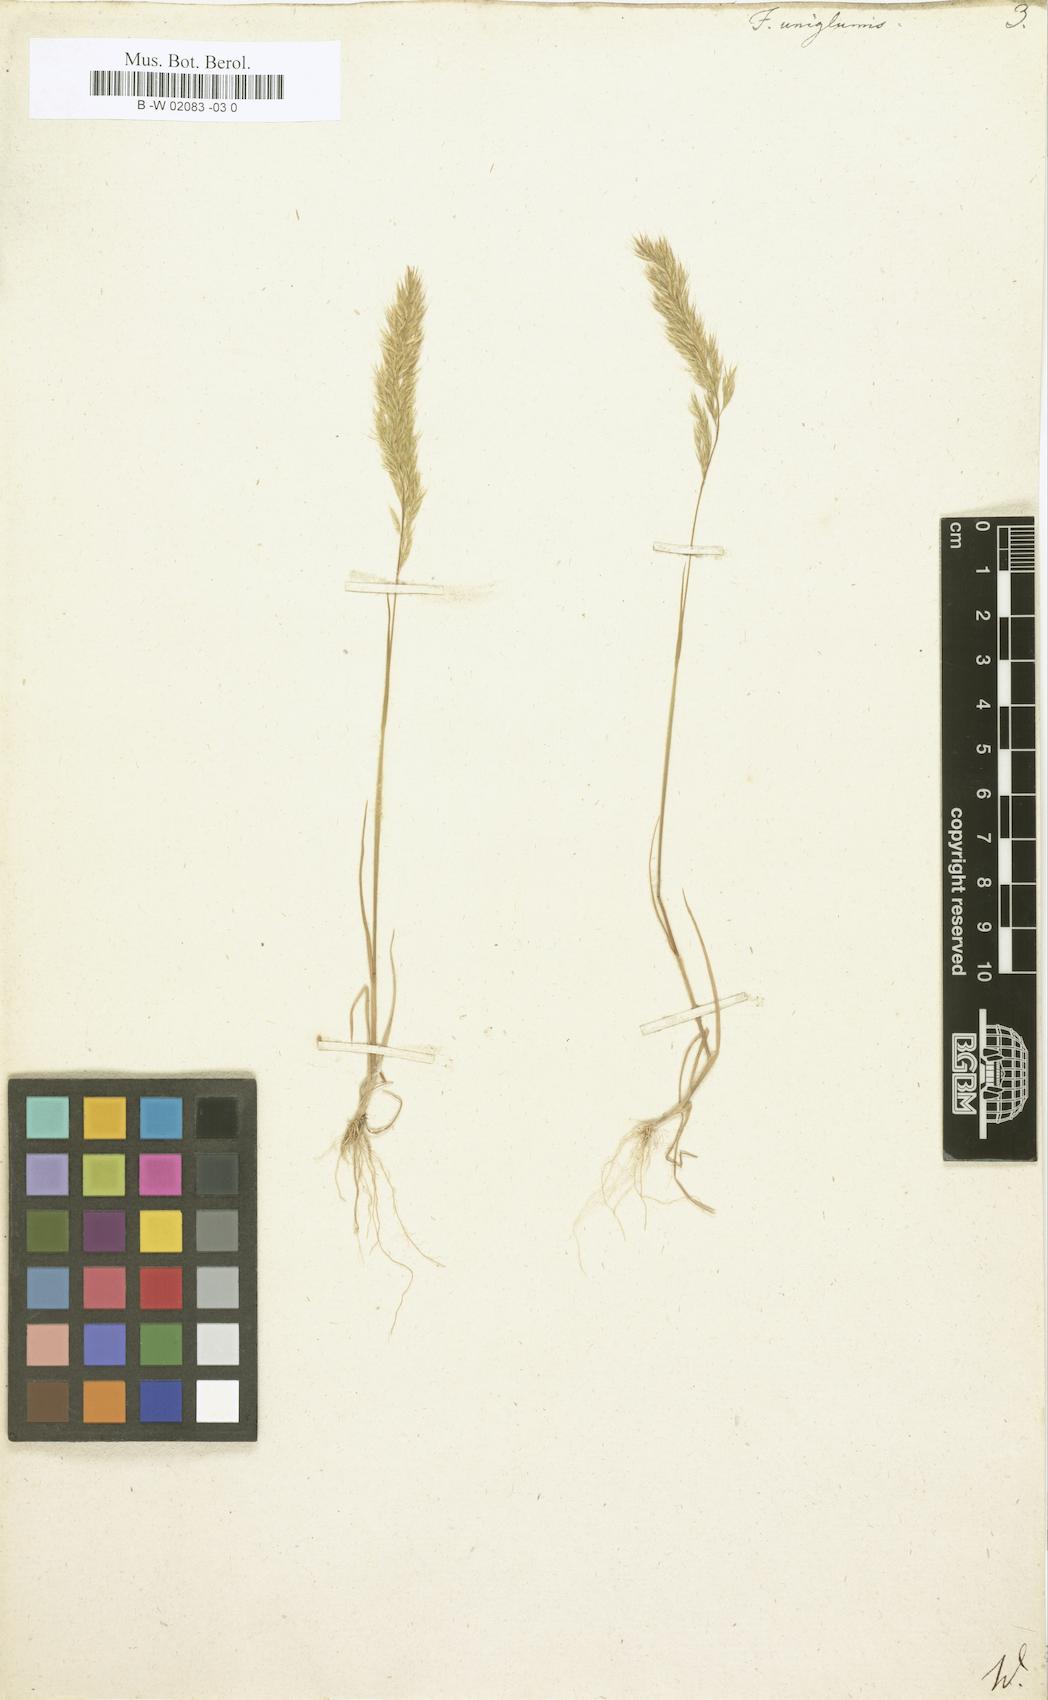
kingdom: Plantae
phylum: Tracheophyta
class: Liliopsida
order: Poales
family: Poaceae
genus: Festuca
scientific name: Festuca
